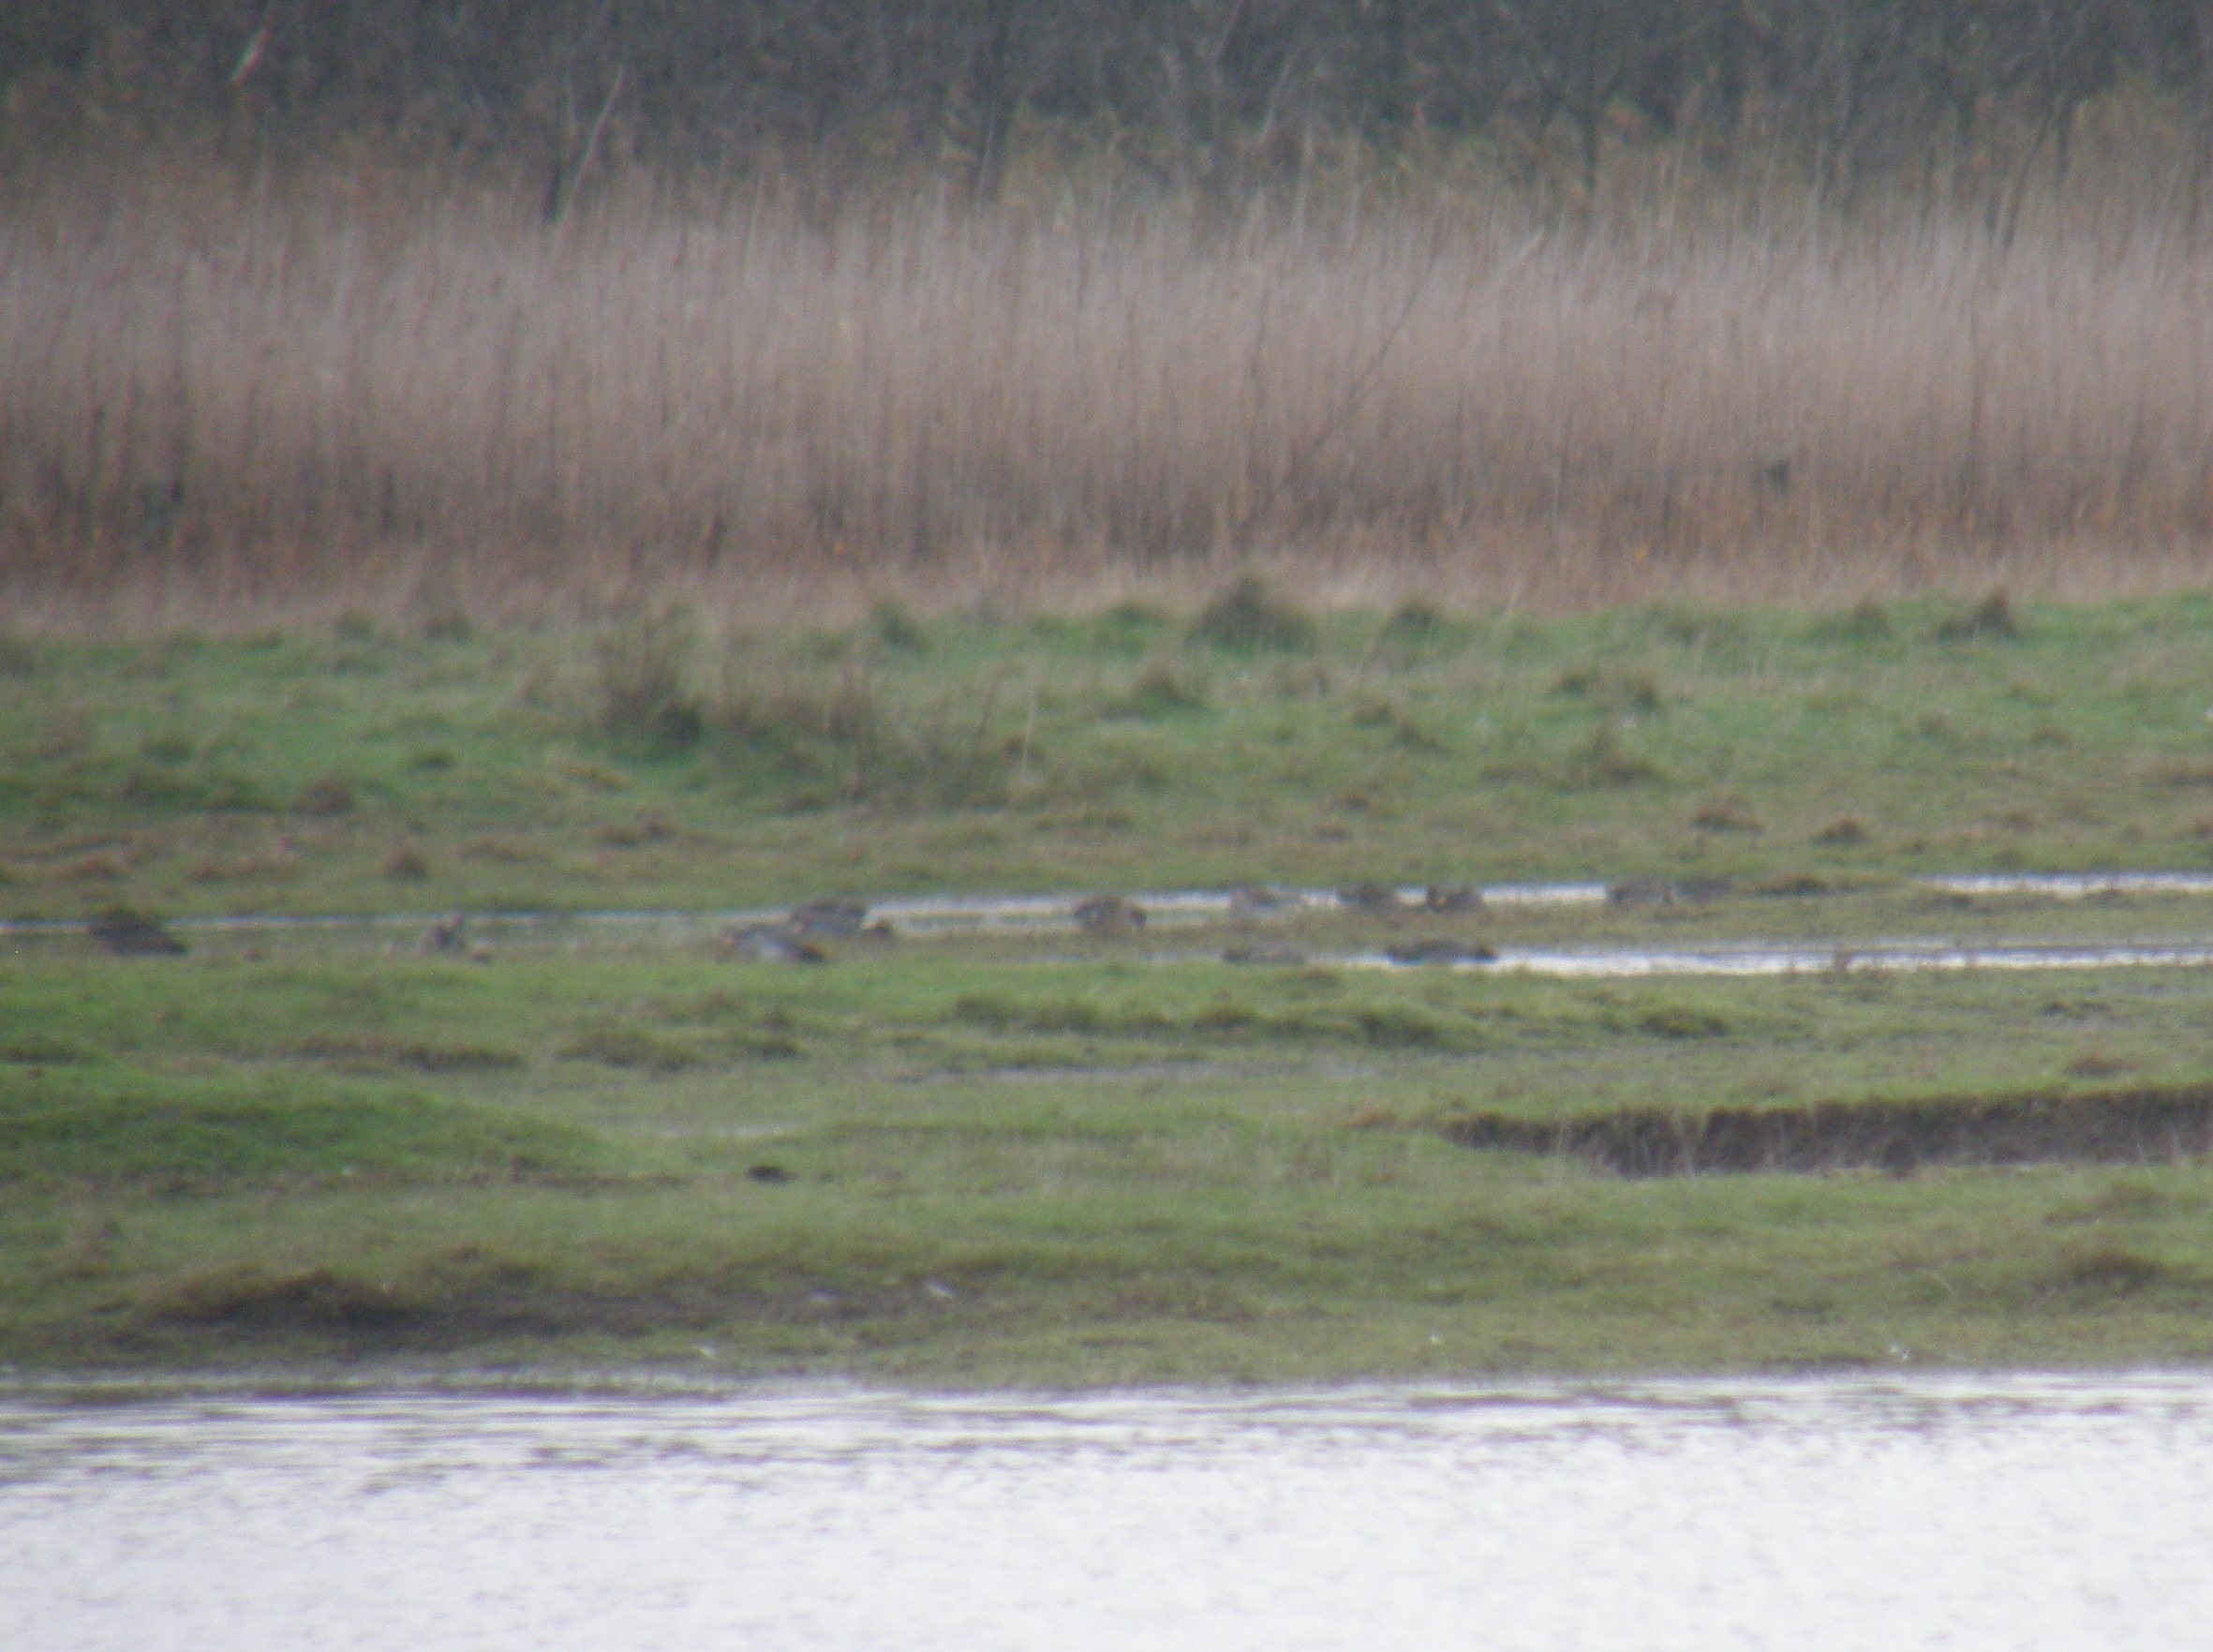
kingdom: Animalia
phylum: Chordata
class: Aves
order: Anseriformes
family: Anatidae
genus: Anas
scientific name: Anas crecca
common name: Krikand
